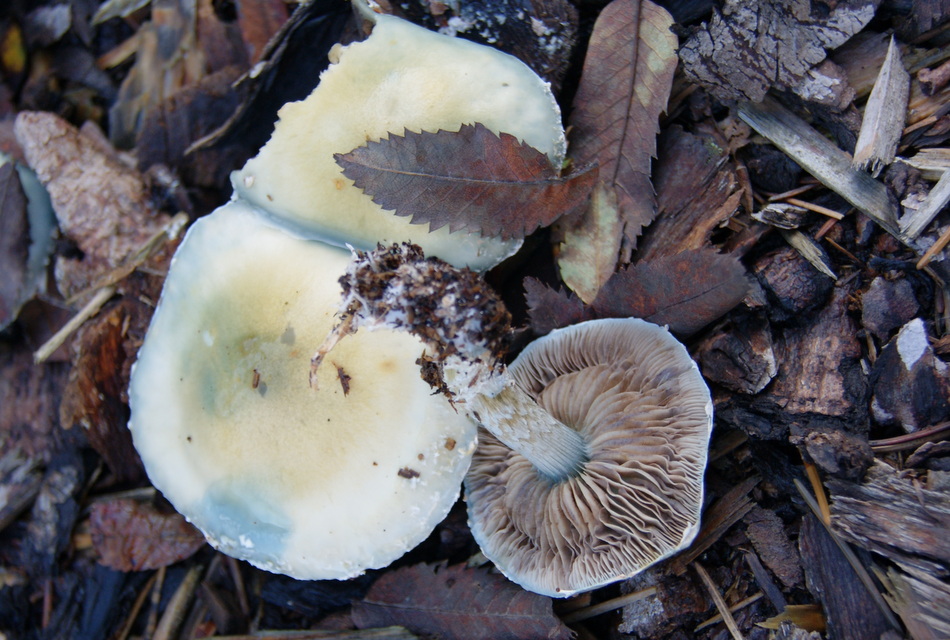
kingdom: Fungi
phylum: Basidiomycota
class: Agaricomycetes
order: Agaricales
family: Strophariaceae
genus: Stropharia
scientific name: Stropharia cyanea
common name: blågrøn bredblad
